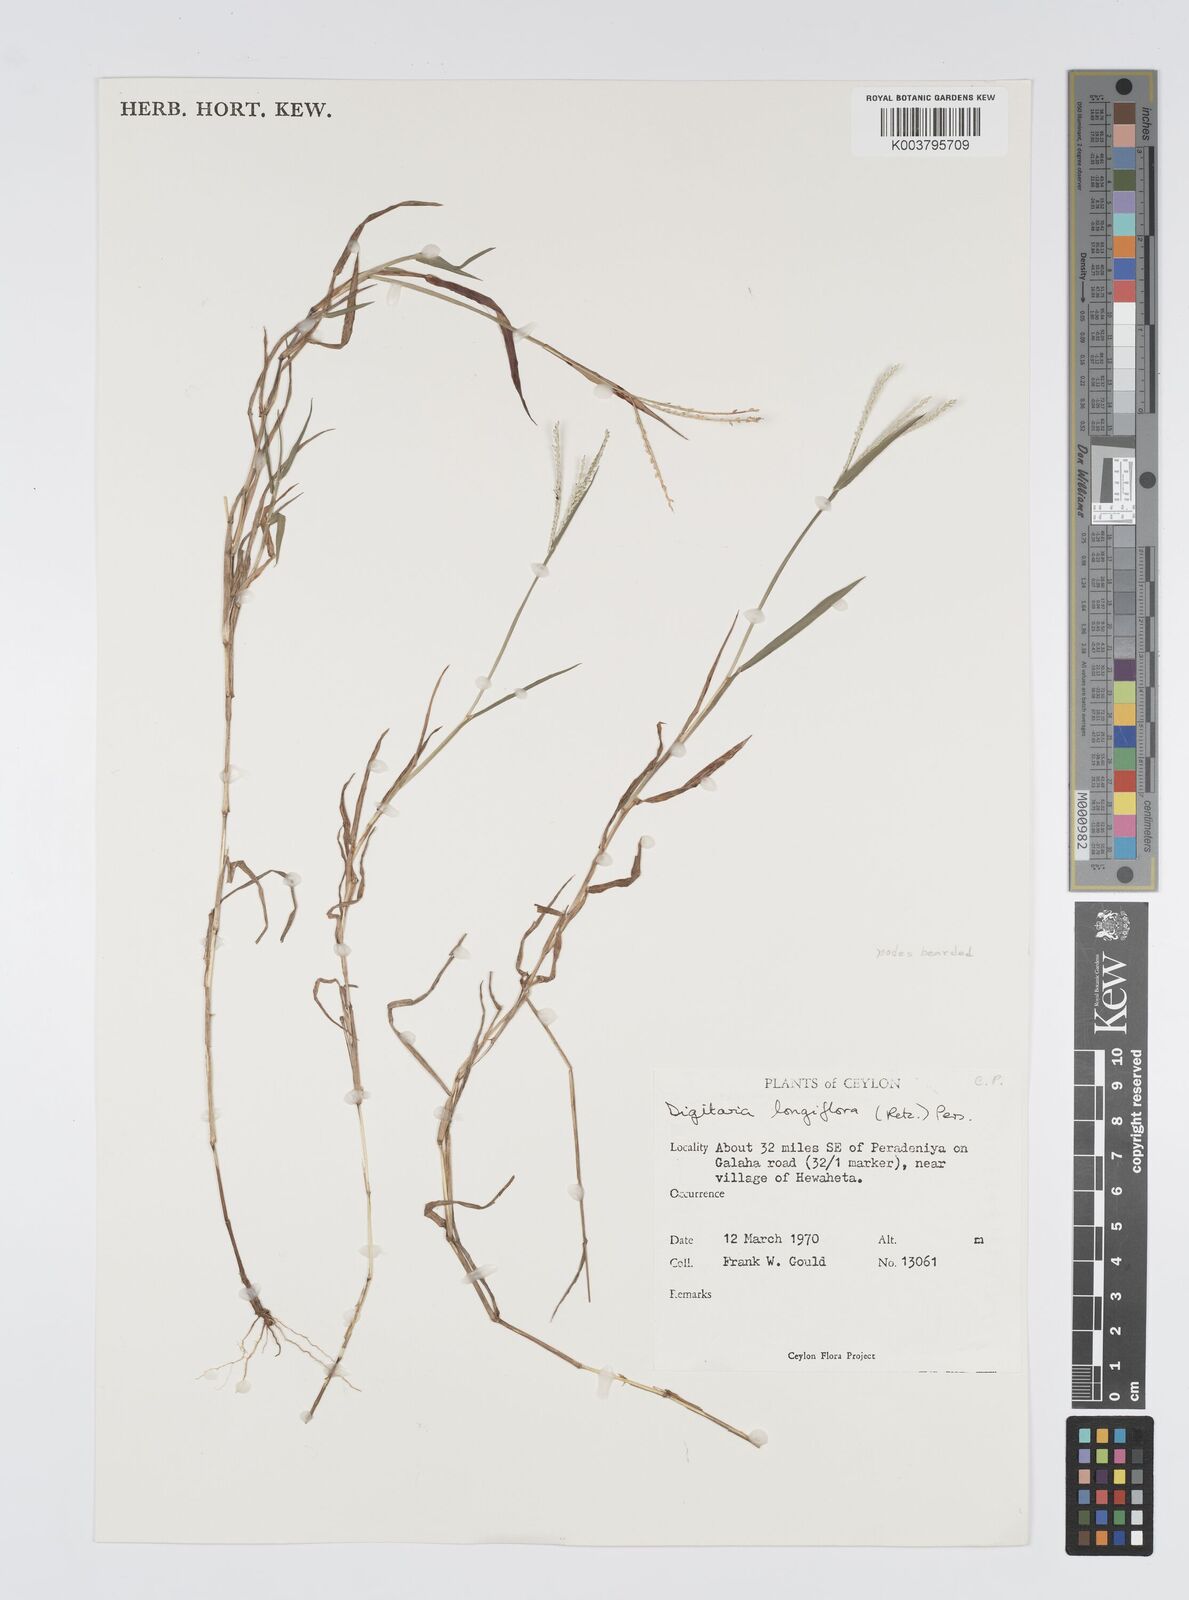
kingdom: Plantae
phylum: Tracheophyta
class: Liliopsida
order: Poales
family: Poaceae
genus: Digitaria
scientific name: Digitaria longiflora
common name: Wire crabgrass
